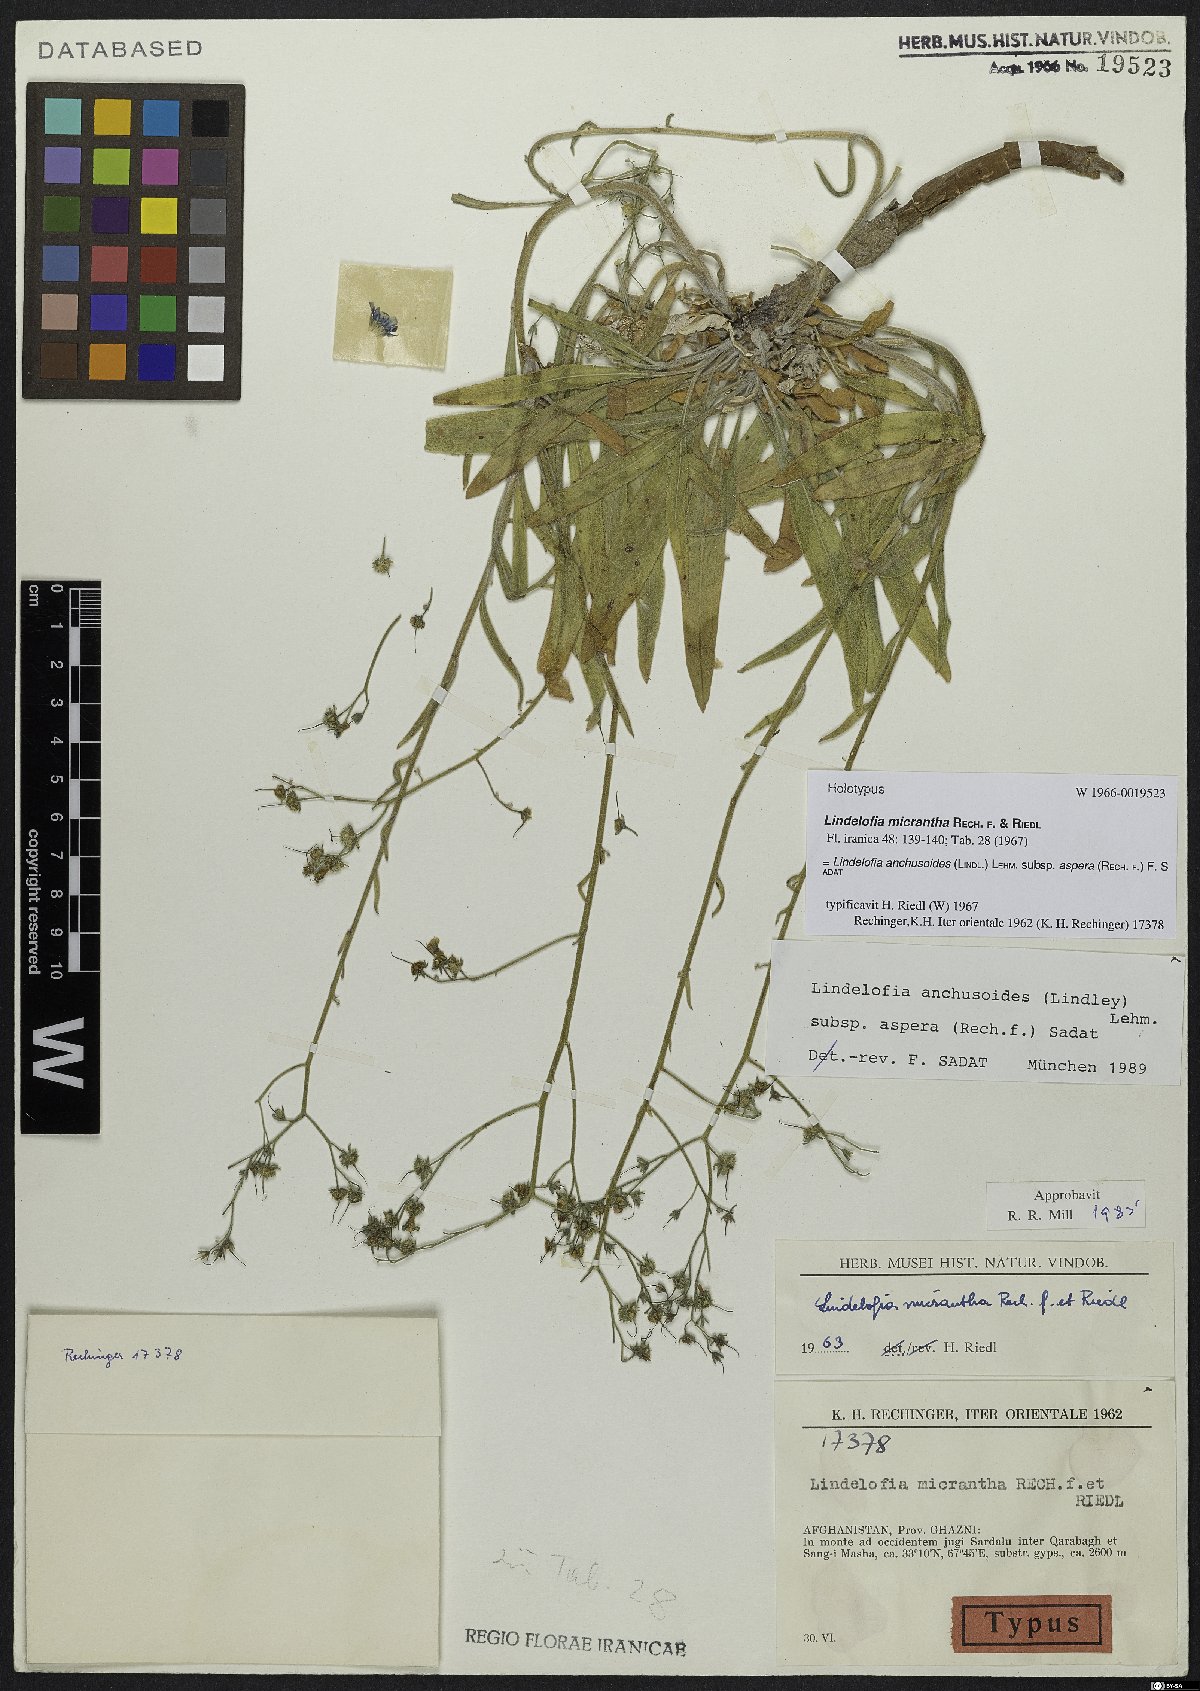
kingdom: Plantae
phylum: Tracheophyta
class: Magnoliopsida
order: Boraginales
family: Boraginaceae
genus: Lindelofia
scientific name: Lindelofia anchusoides
